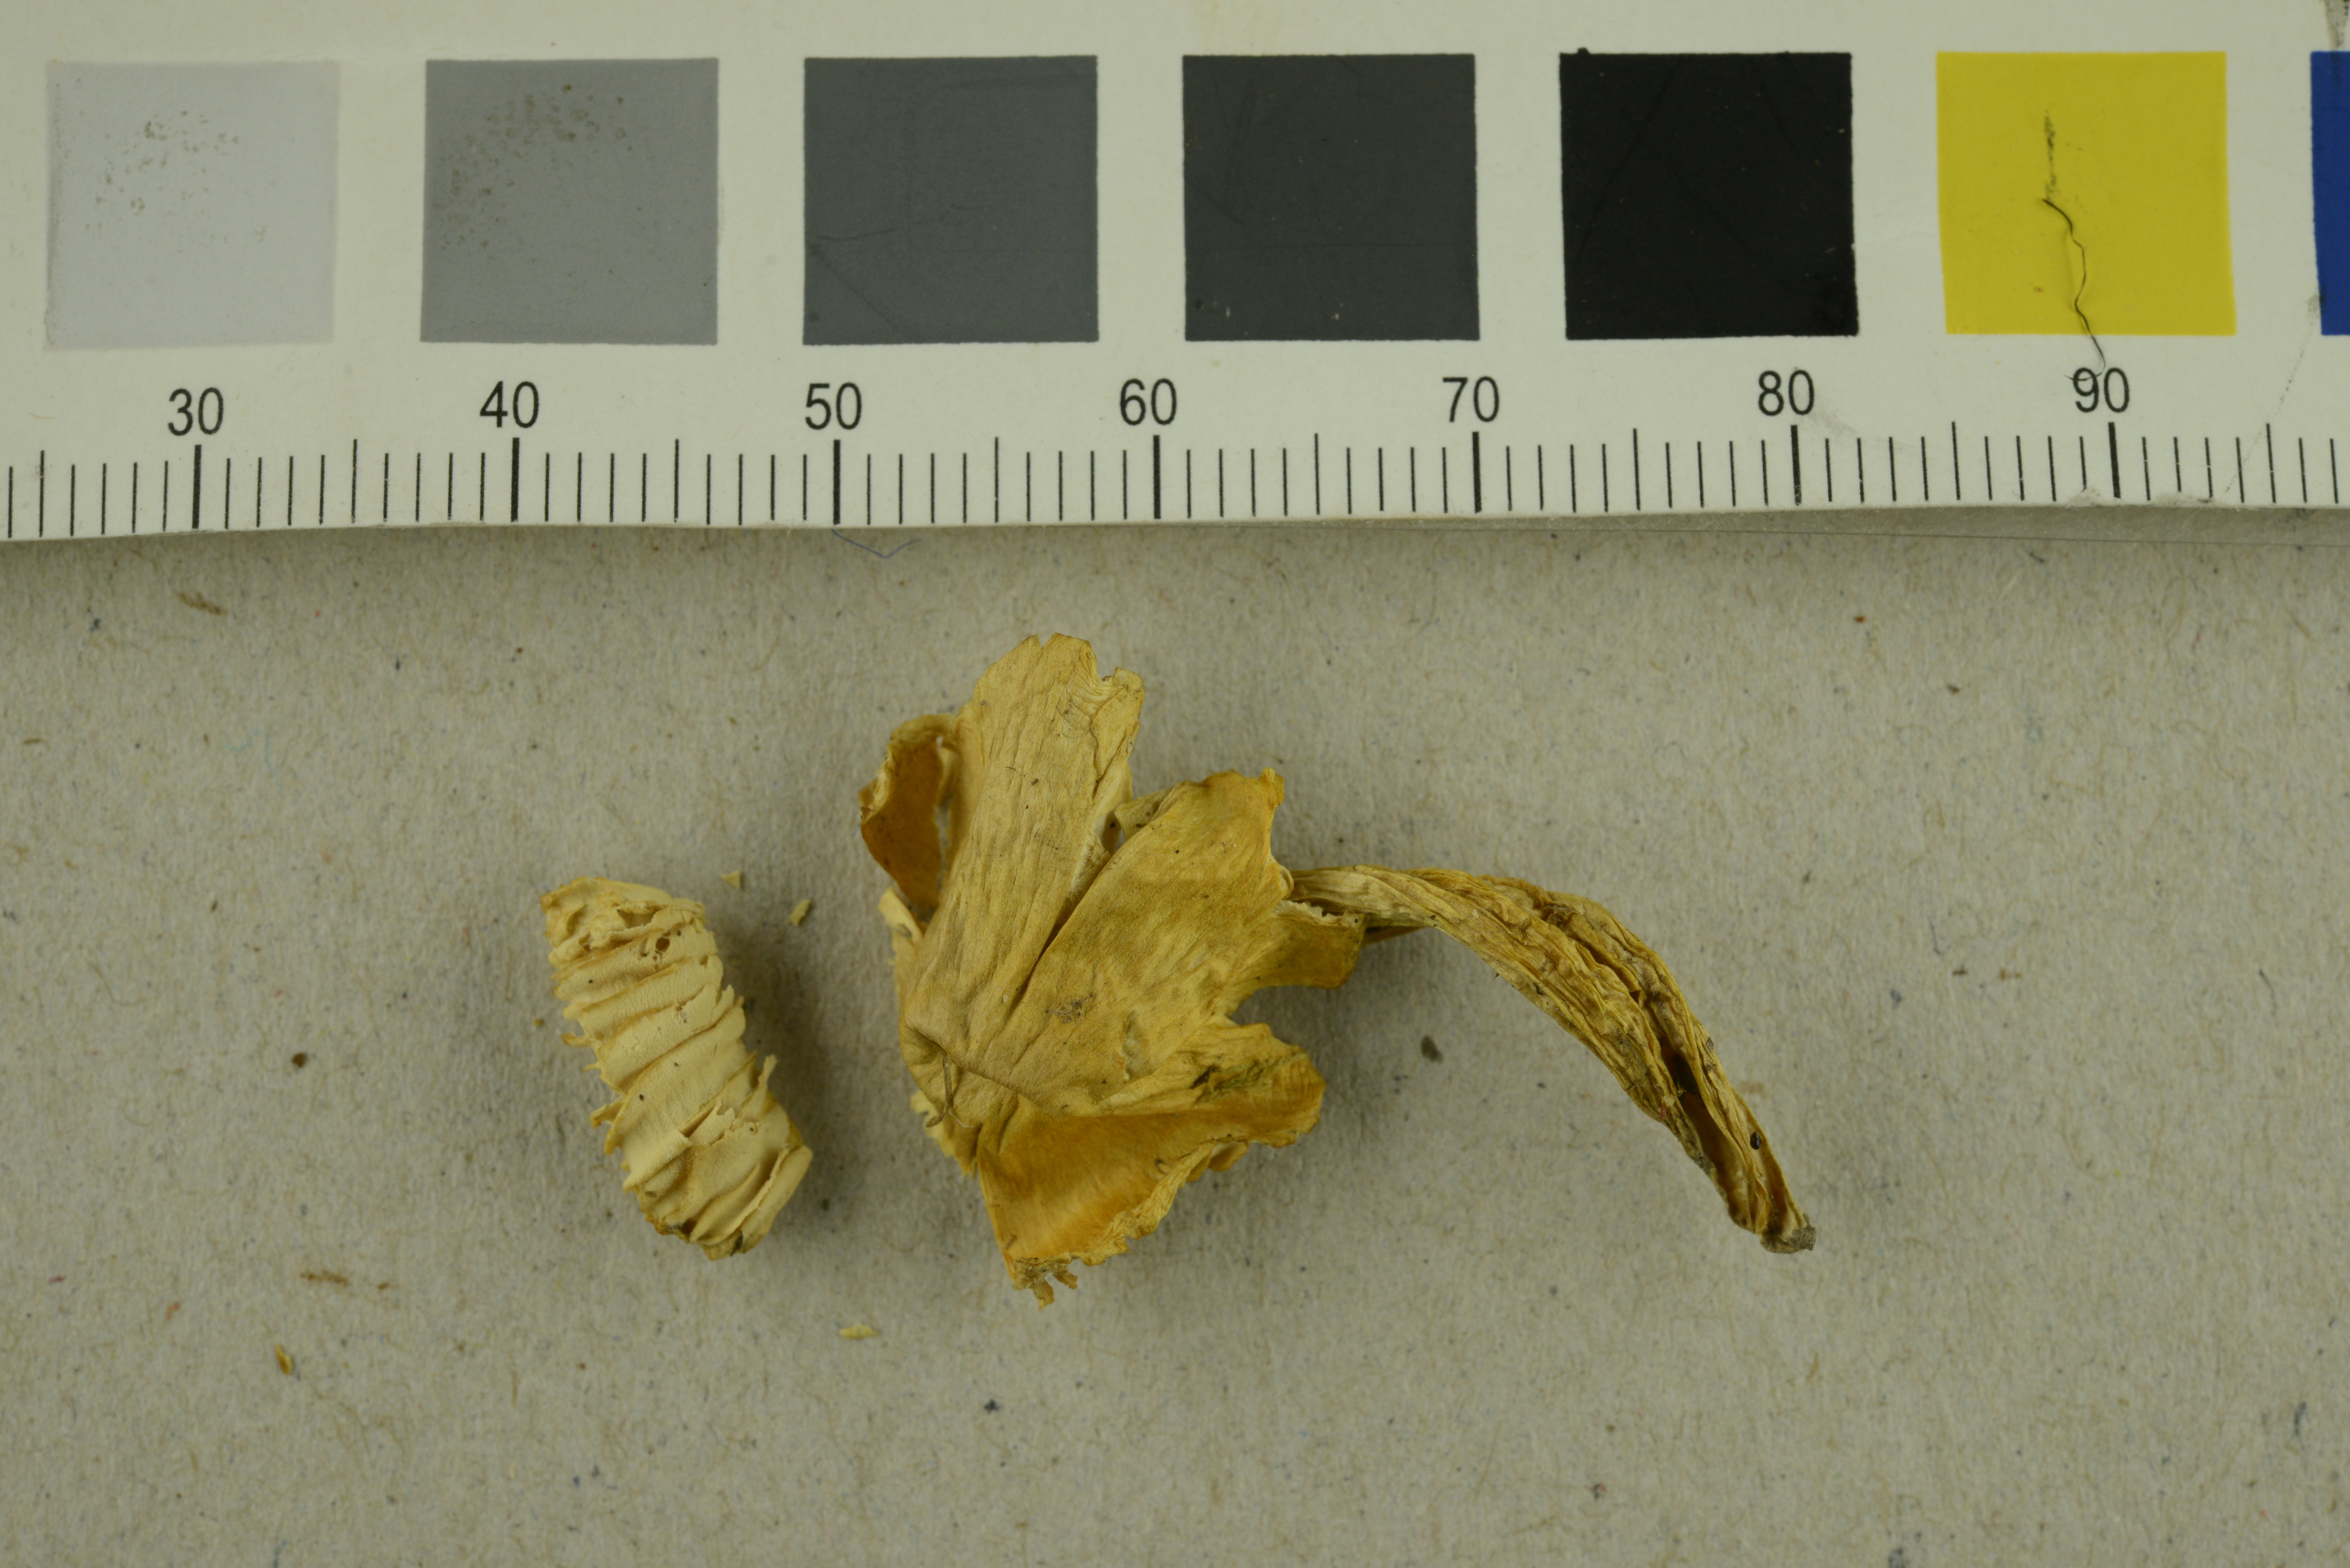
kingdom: Fungi
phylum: Basidiomycota
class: Agaricomycetes
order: Agaricales
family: Hygrophoraceae
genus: Hygrocybe
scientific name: Hygrocybe citrinovirens
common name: Citrine waxcap
